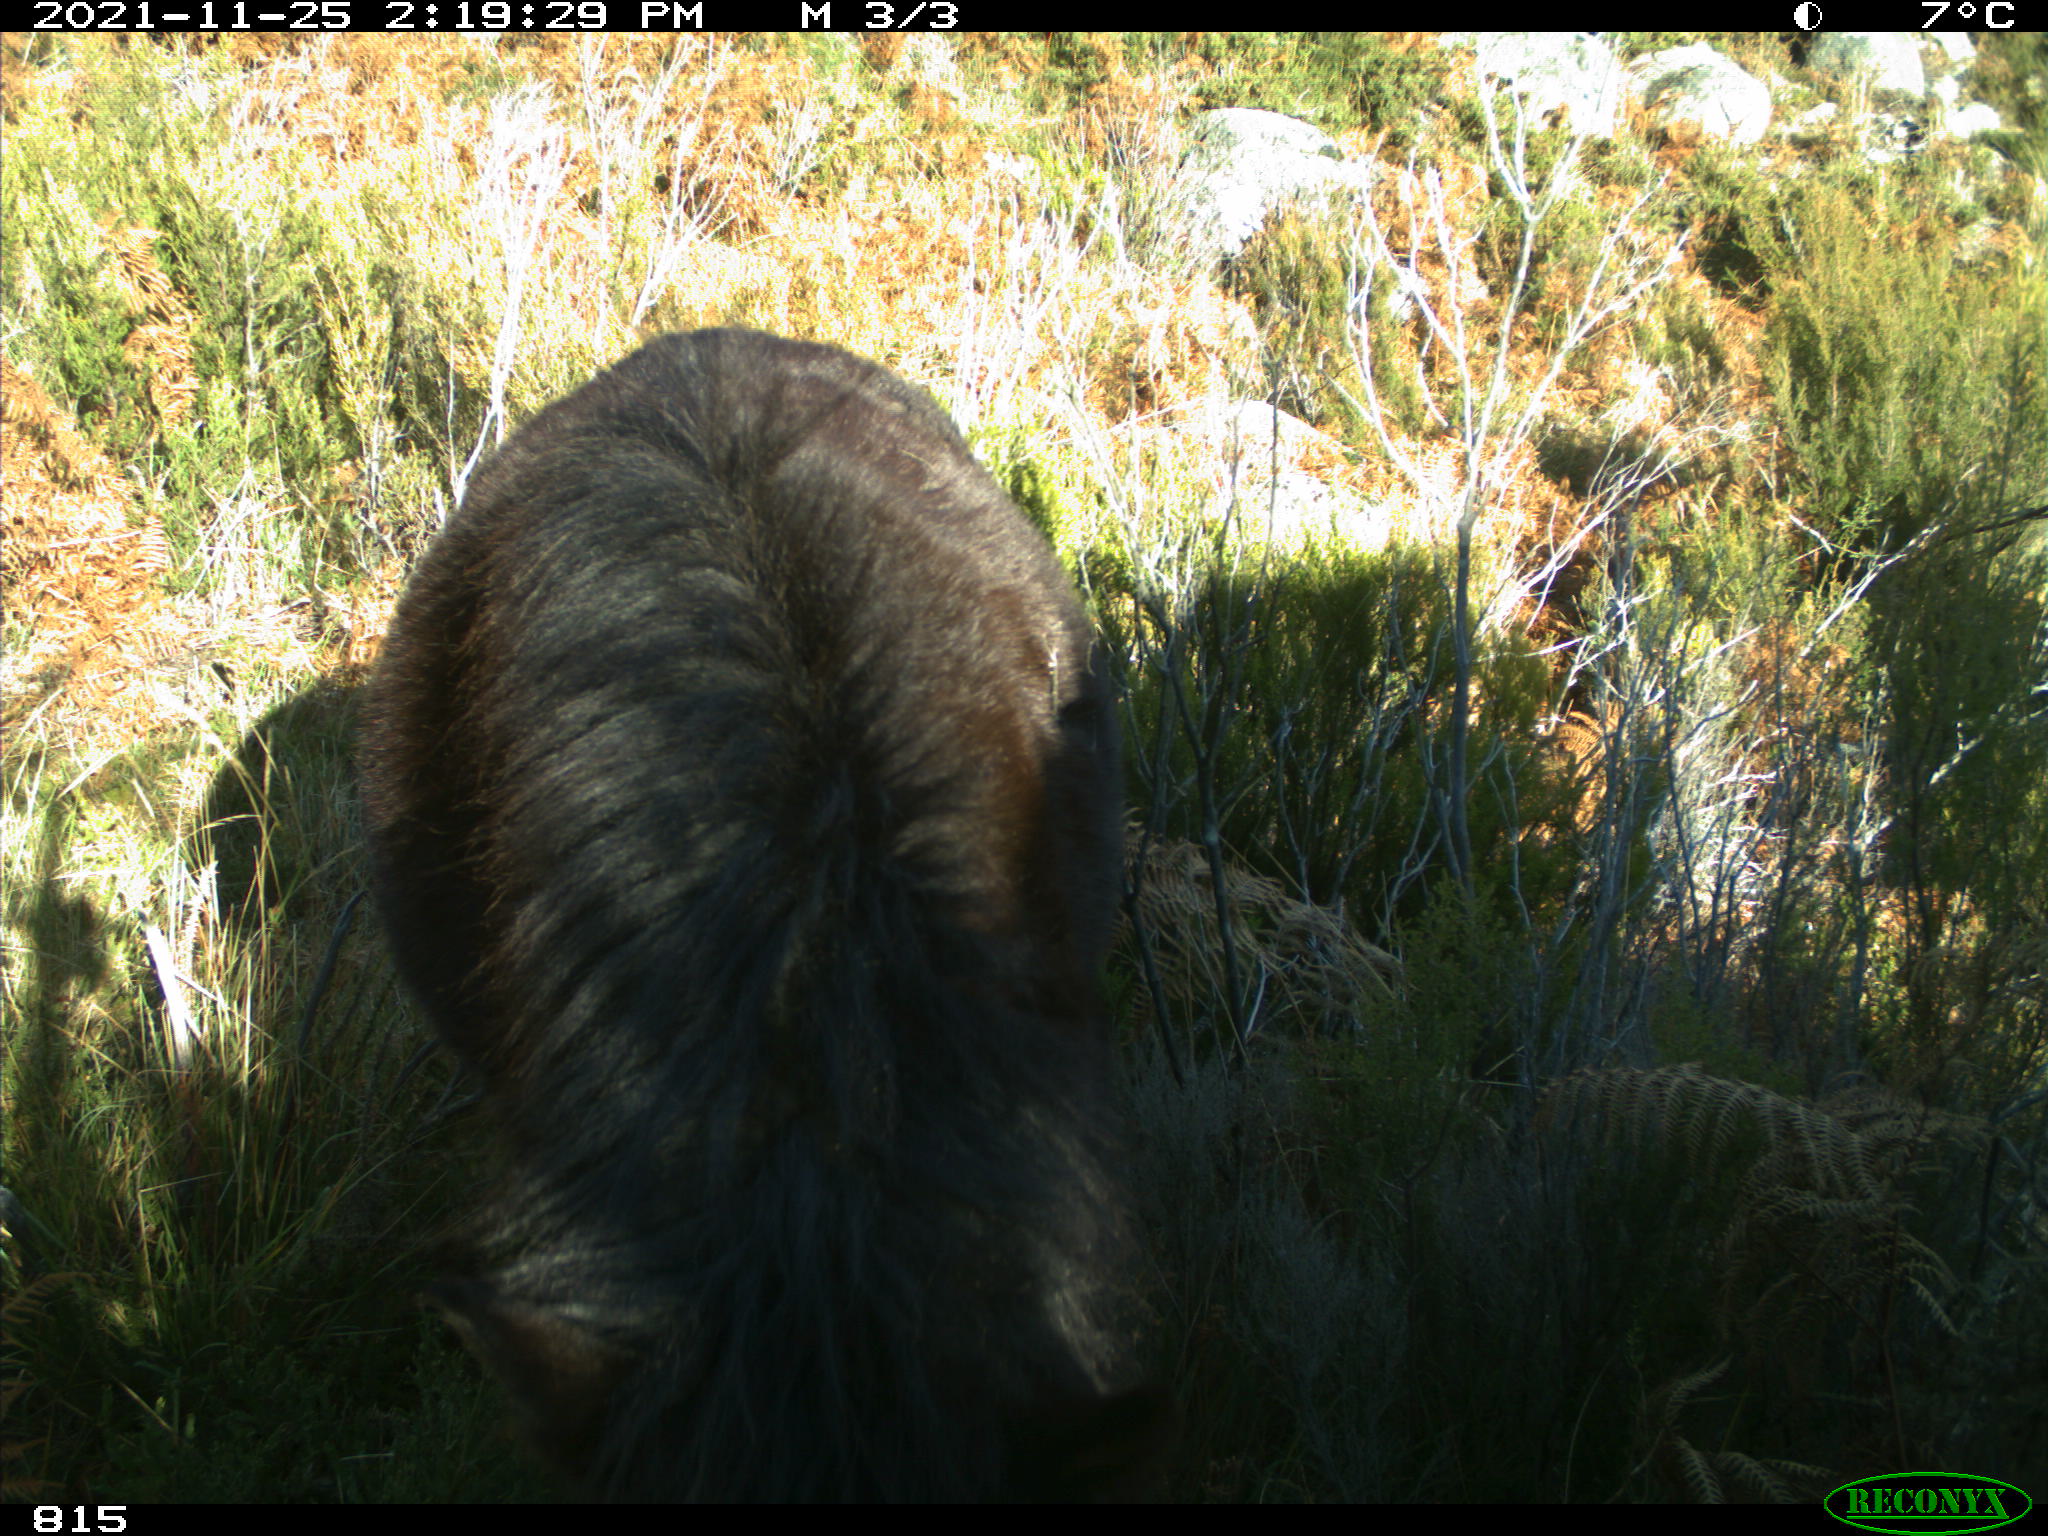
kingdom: Animalia
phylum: Chordata
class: Mammalia
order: Perissodactyla
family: Equidae
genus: Equus
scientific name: Equus caballus
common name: Horse
